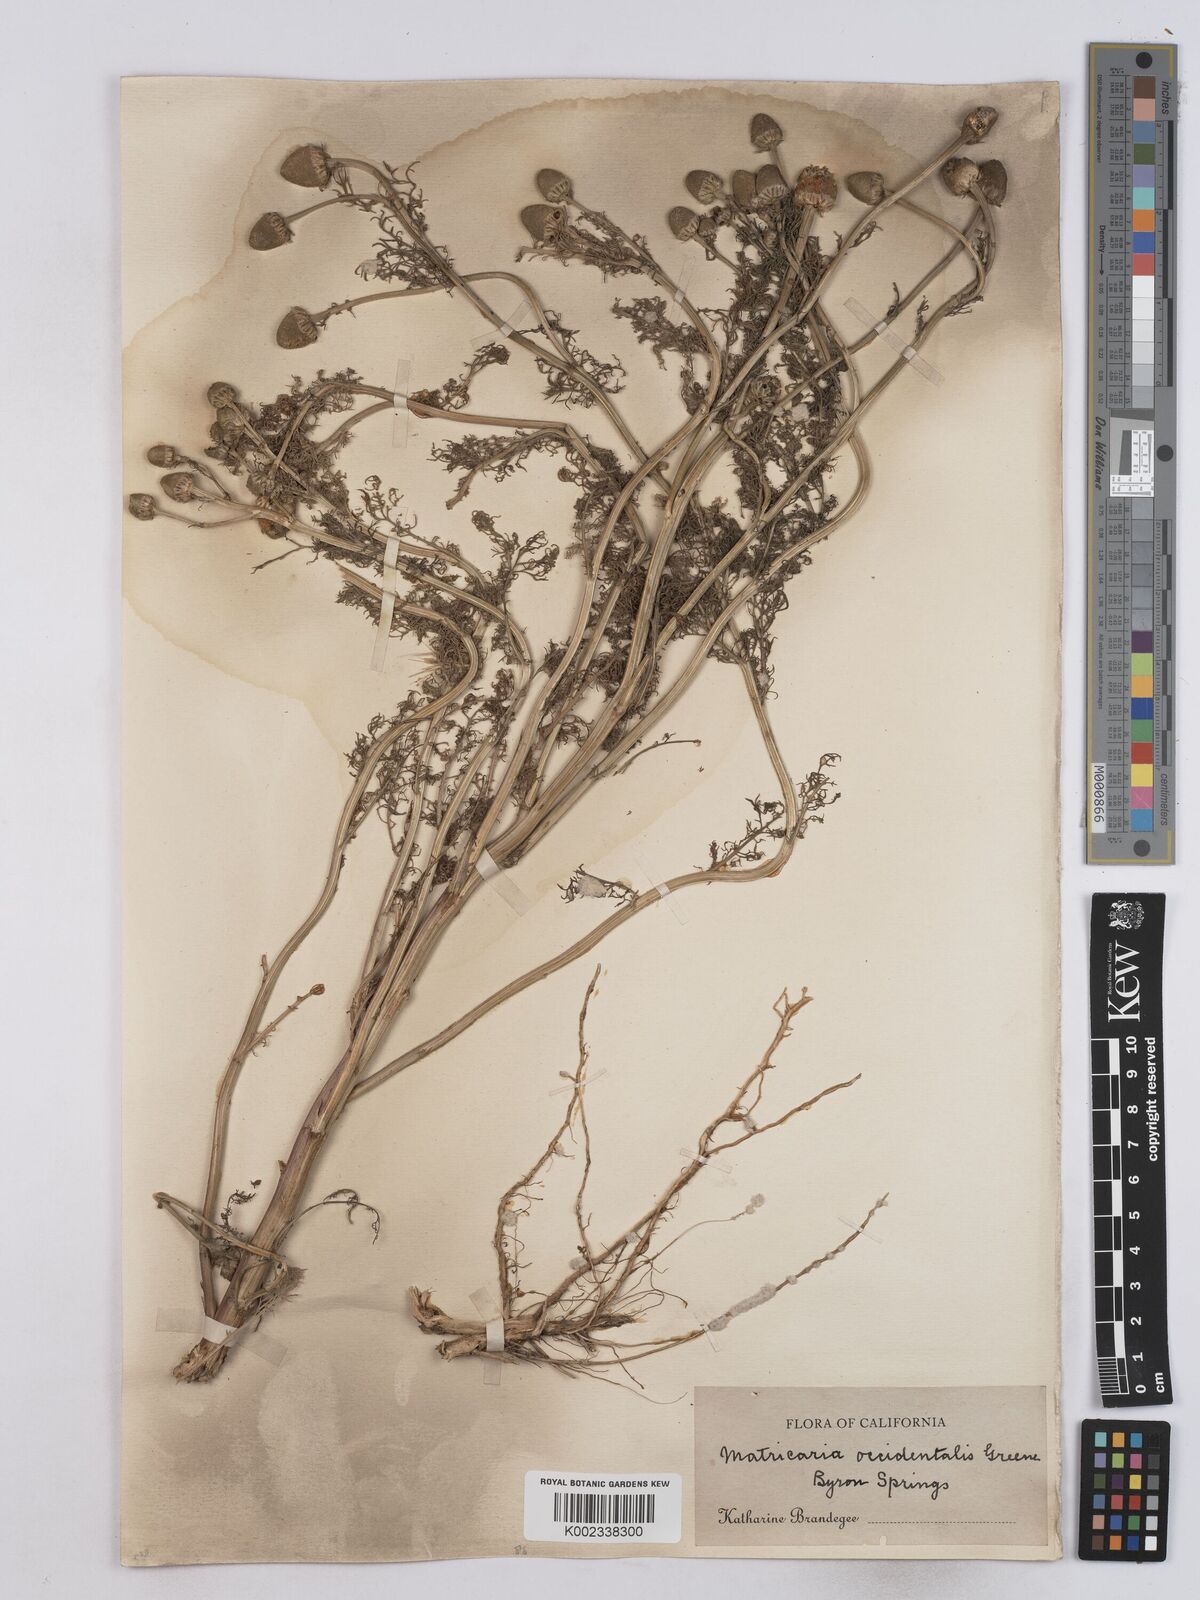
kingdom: Plantae
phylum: Tracheophyta
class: Magnoliopsida
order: Asterales
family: Asteraceae
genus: Matricaria
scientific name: Matricaria occidentalis
